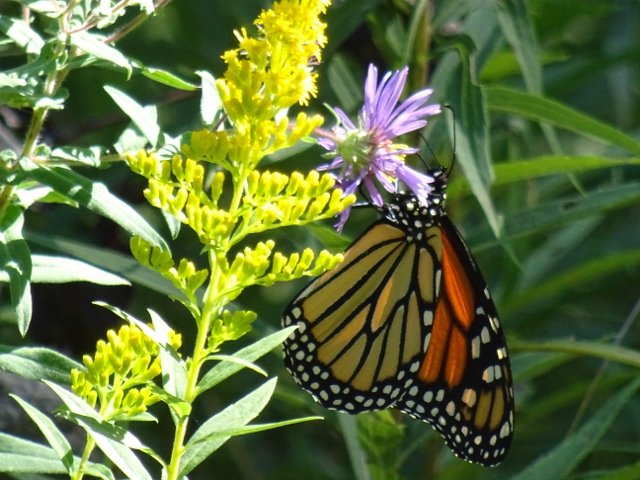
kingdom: Animalia
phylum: Arthropoda
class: Insecta
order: Lepidoptera
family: Nymphalidae
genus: Danaus
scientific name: Danaus plexippus
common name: Monarch
